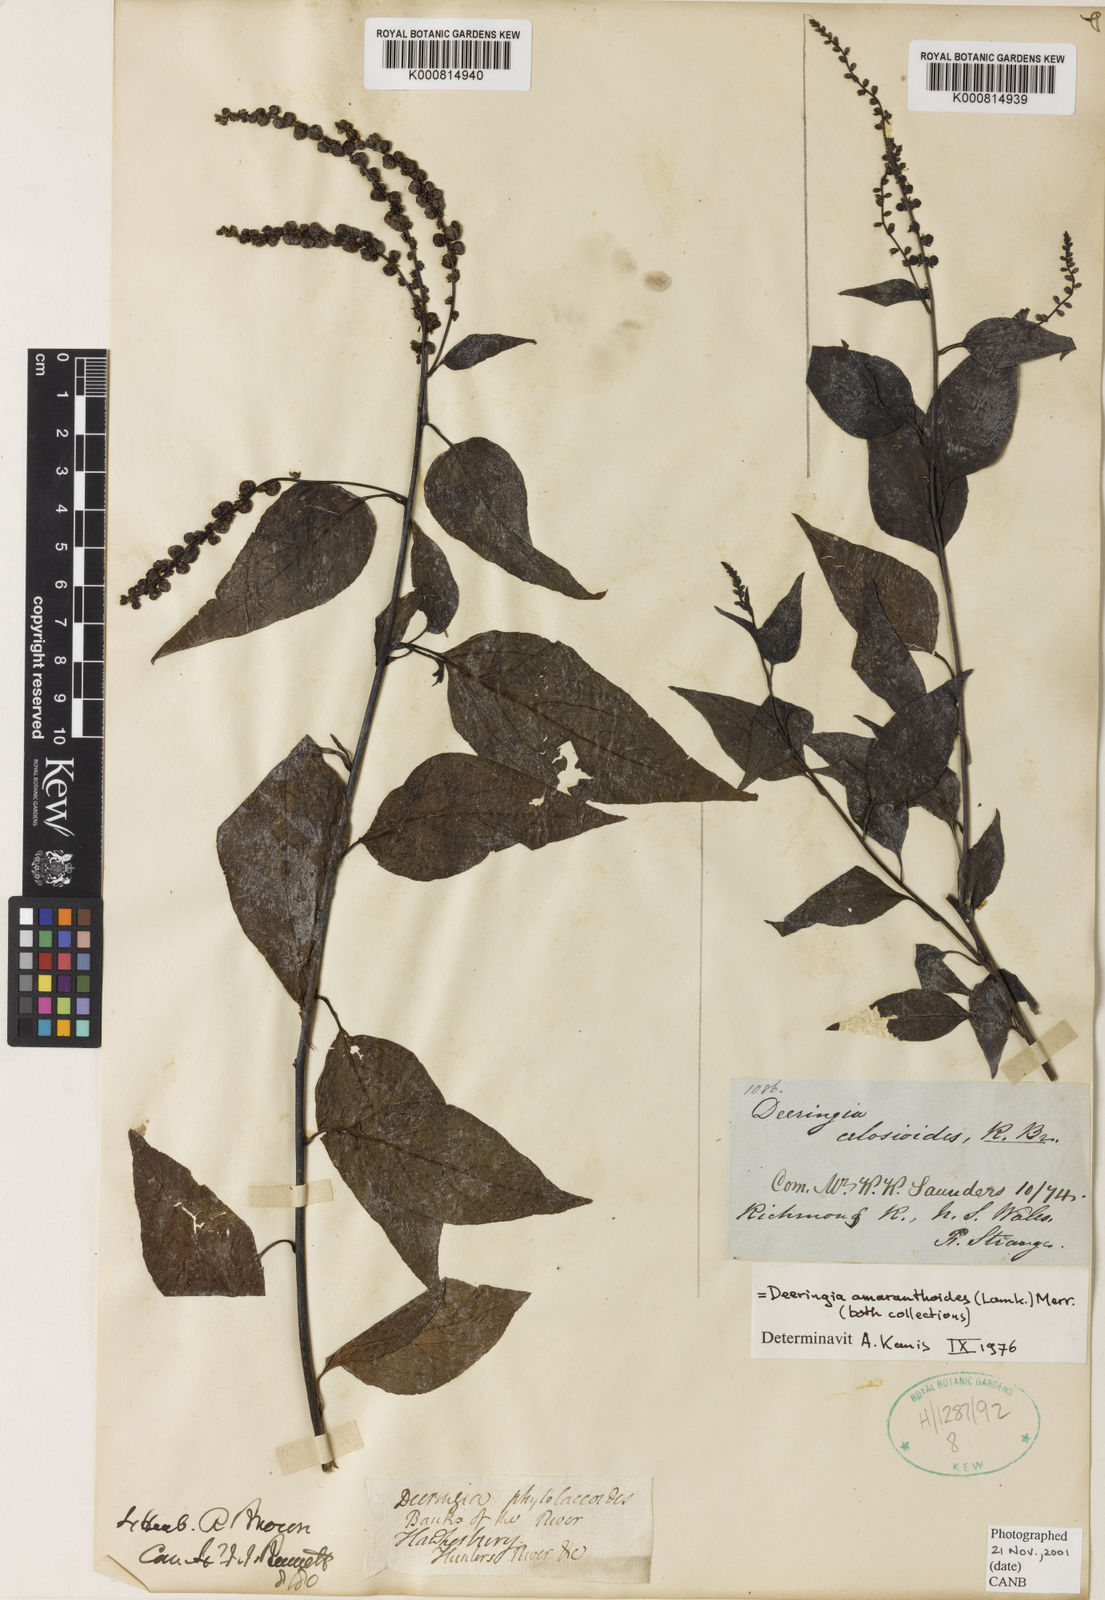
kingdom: Plantae
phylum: Tracheophyta
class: Magnoliopsida
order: Caryophyllales
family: Amaranthaceae
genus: Deeringia
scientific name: Deeringia amaranthoides
